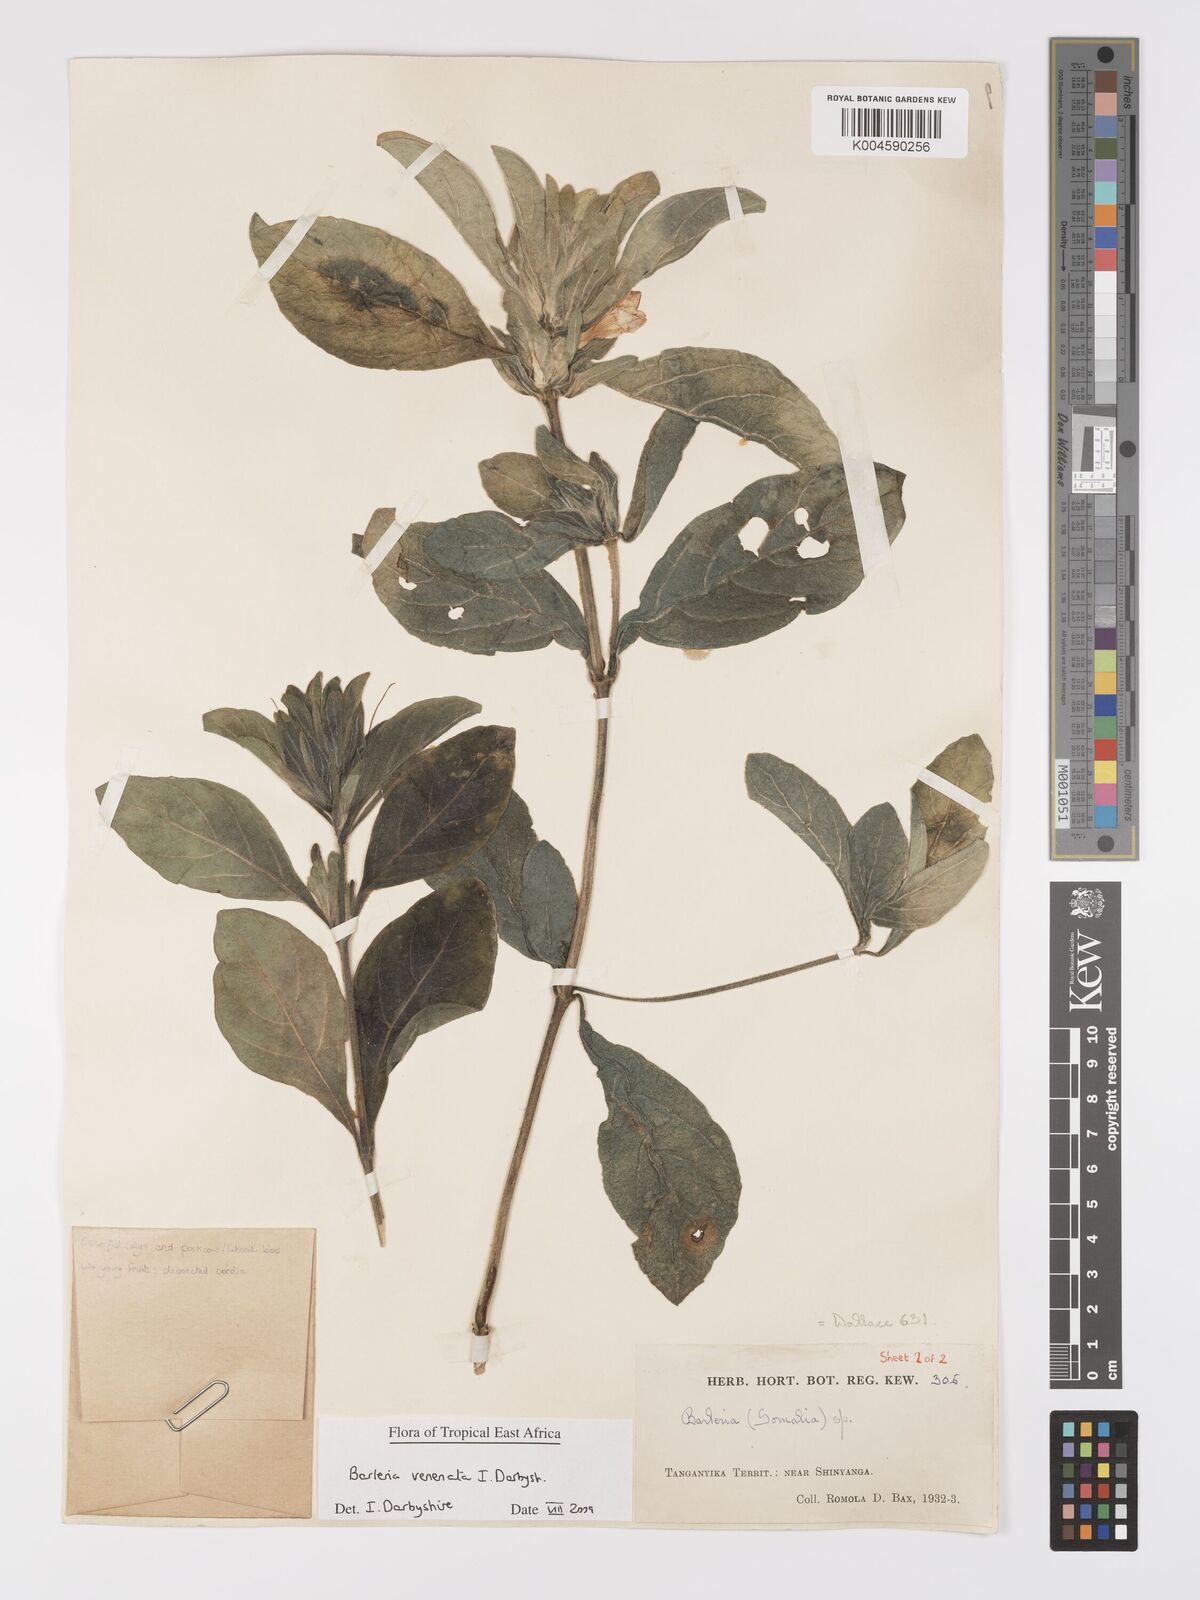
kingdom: Plantae
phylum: Tracheophyta
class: Magnoliopsida
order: Lamiales
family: Acanthaceae
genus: Barleria
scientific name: Barleria venenata
